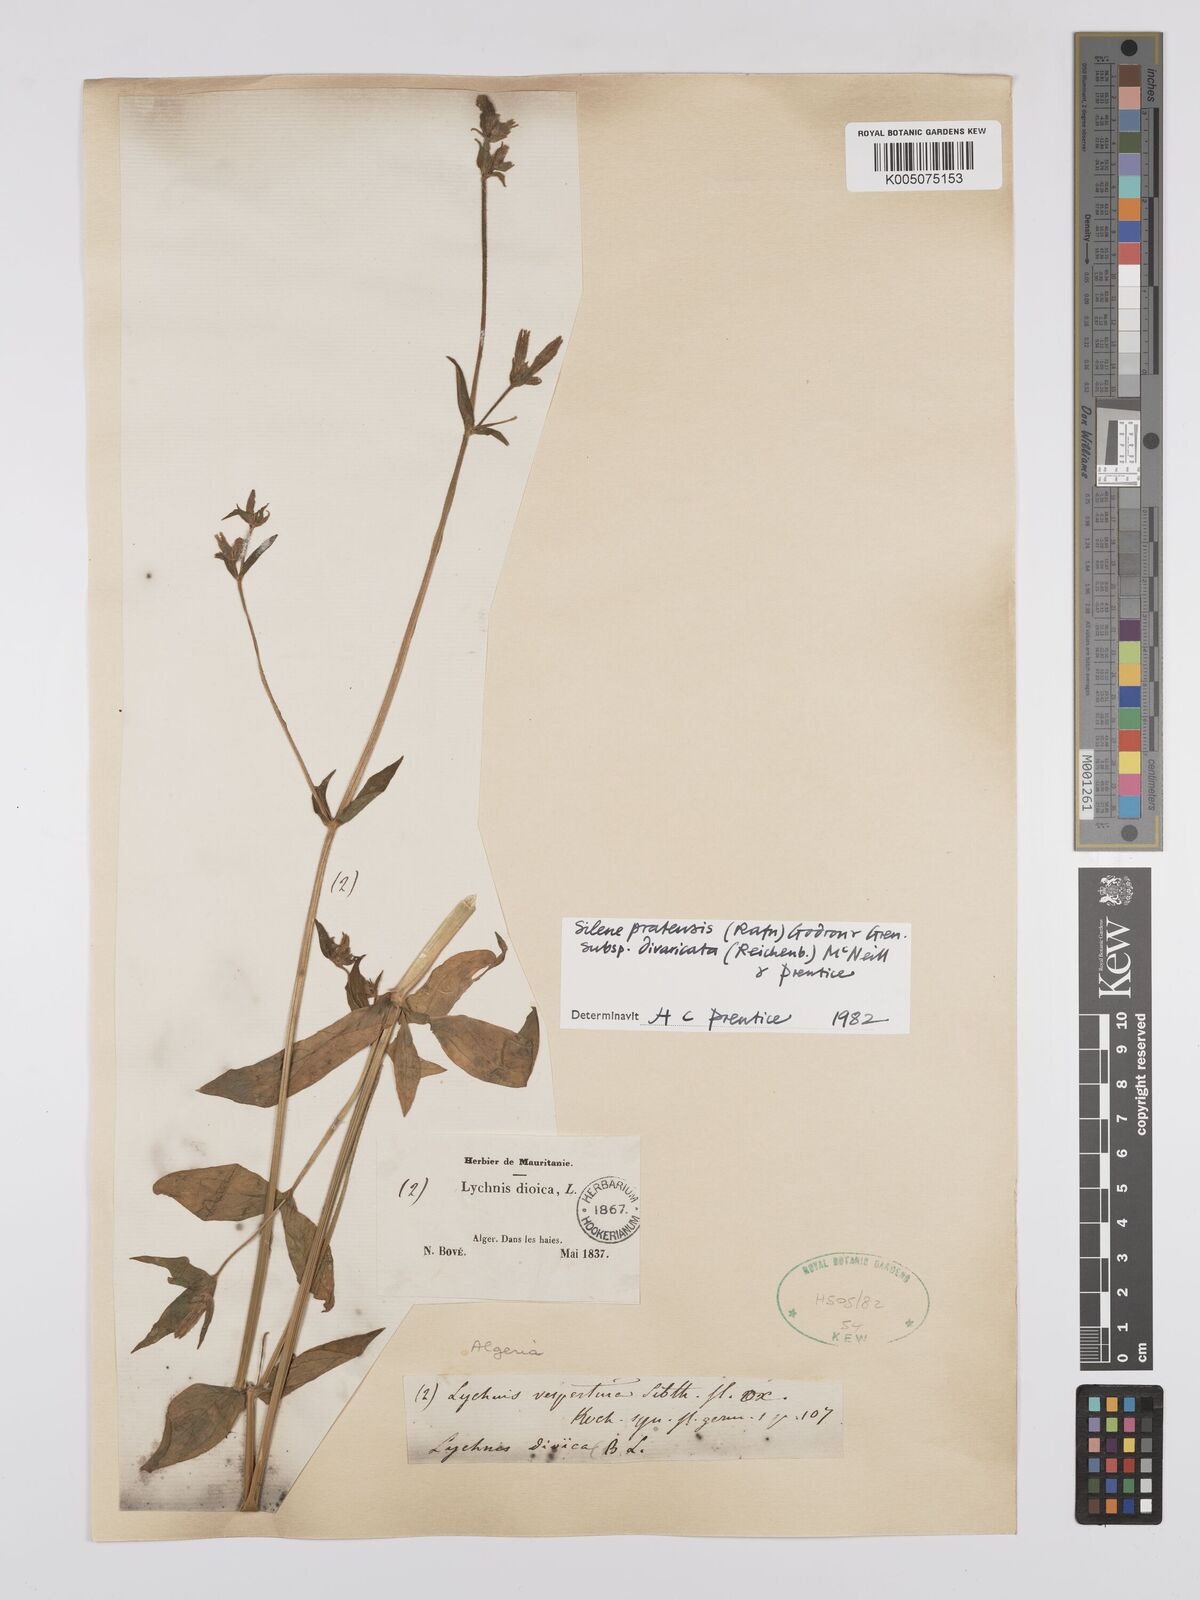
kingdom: Plantae
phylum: Tracheophyta
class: Magnoliopsida
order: Caryophyllales
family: Caryophyllaceae
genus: Silene
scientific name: Silene latifolia
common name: White campion
